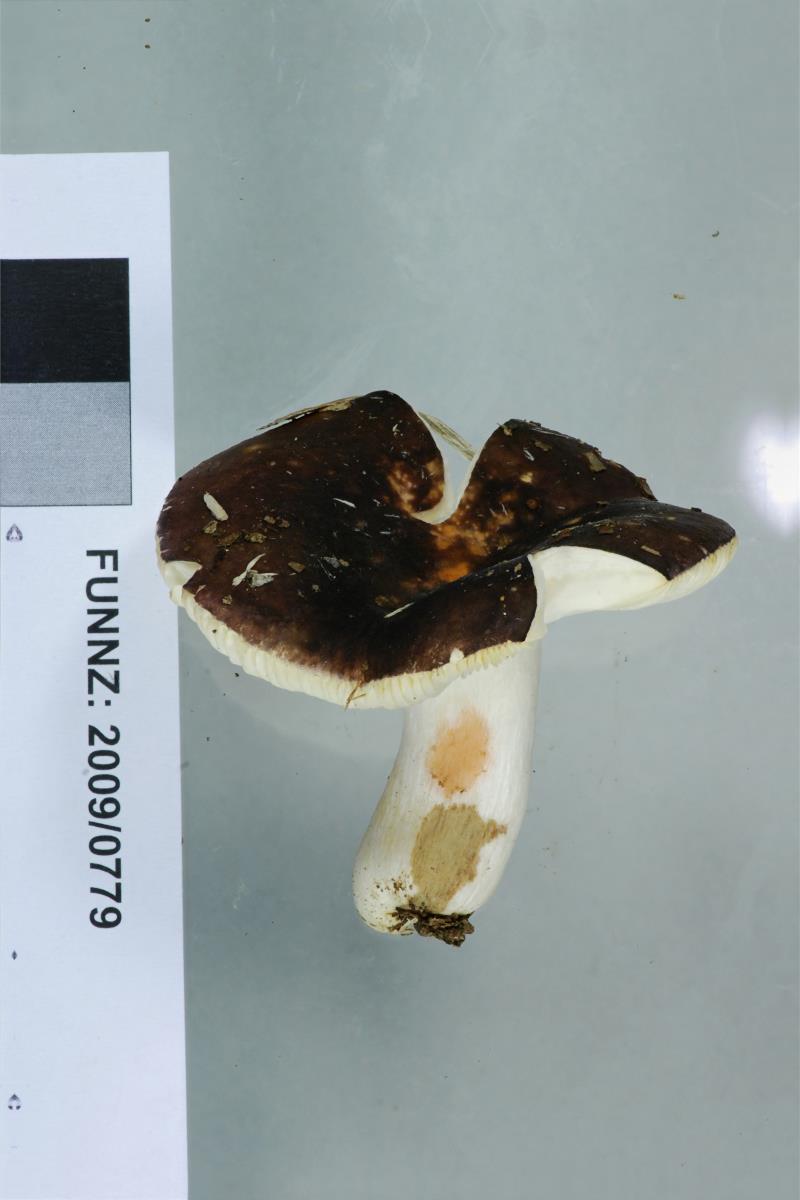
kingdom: Fungi
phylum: Basidiomycota
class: Agaricomycetes
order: Russulales
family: Russulaceae
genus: Russula
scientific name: Russula griseoviolacea
